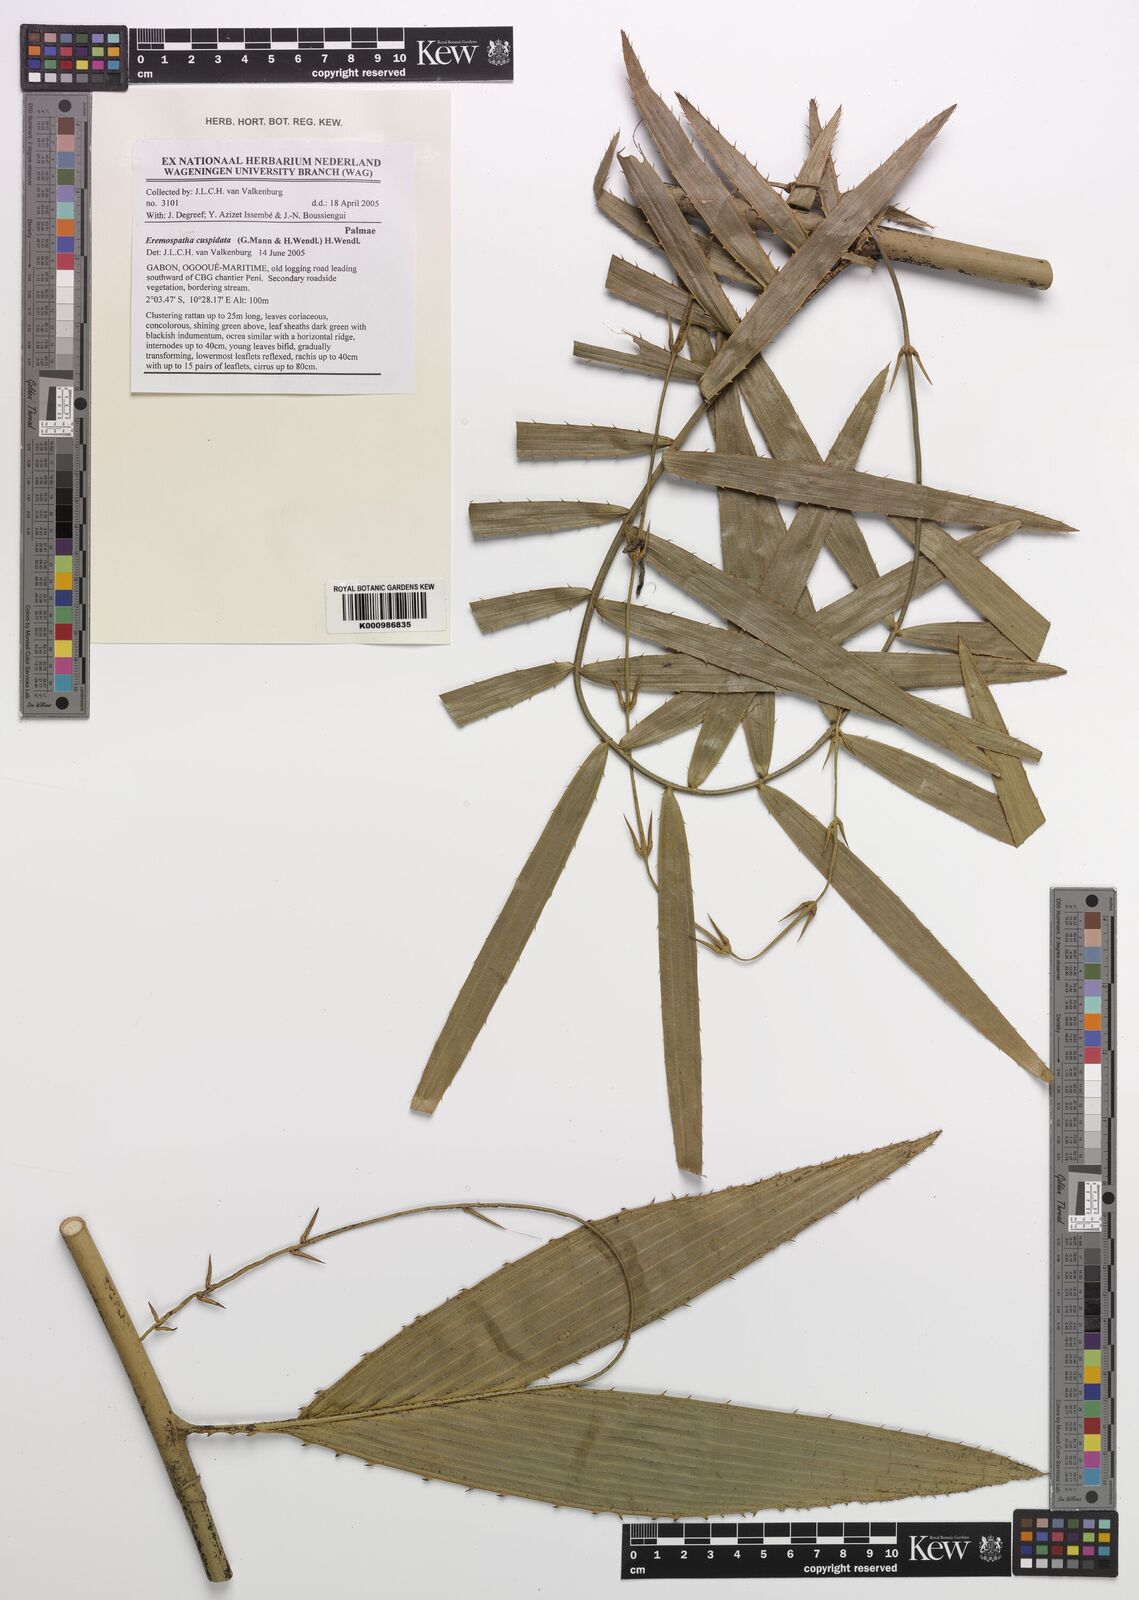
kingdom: Plantae
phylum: Tracheophyta
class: Liliopsida
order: Arecales
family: Arecaceae
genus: Eremospatha
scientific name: Eremospatha cuspidata
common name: Rattan
